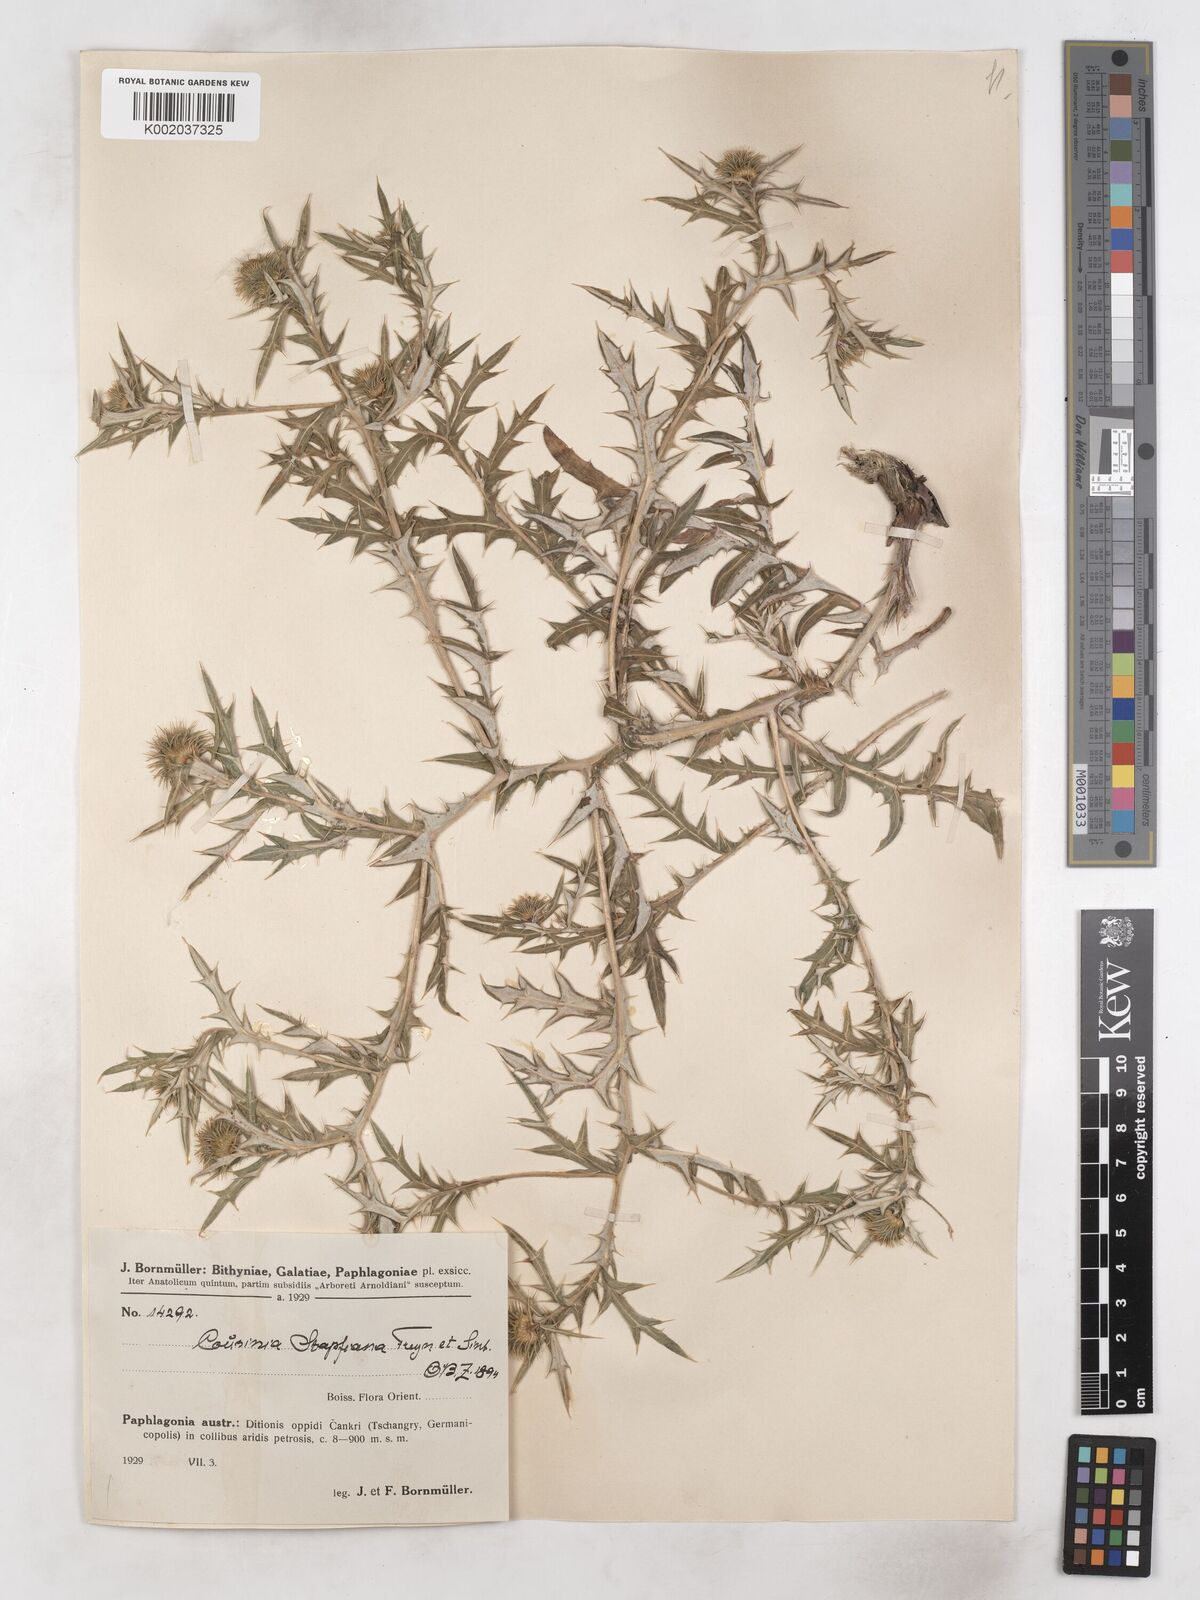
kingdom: Plantae
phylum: Tracheophyta
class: Magnoliopsida
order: Asterales
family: Asteraceae
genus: Cousinia
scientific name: Cousinia stapfiana
